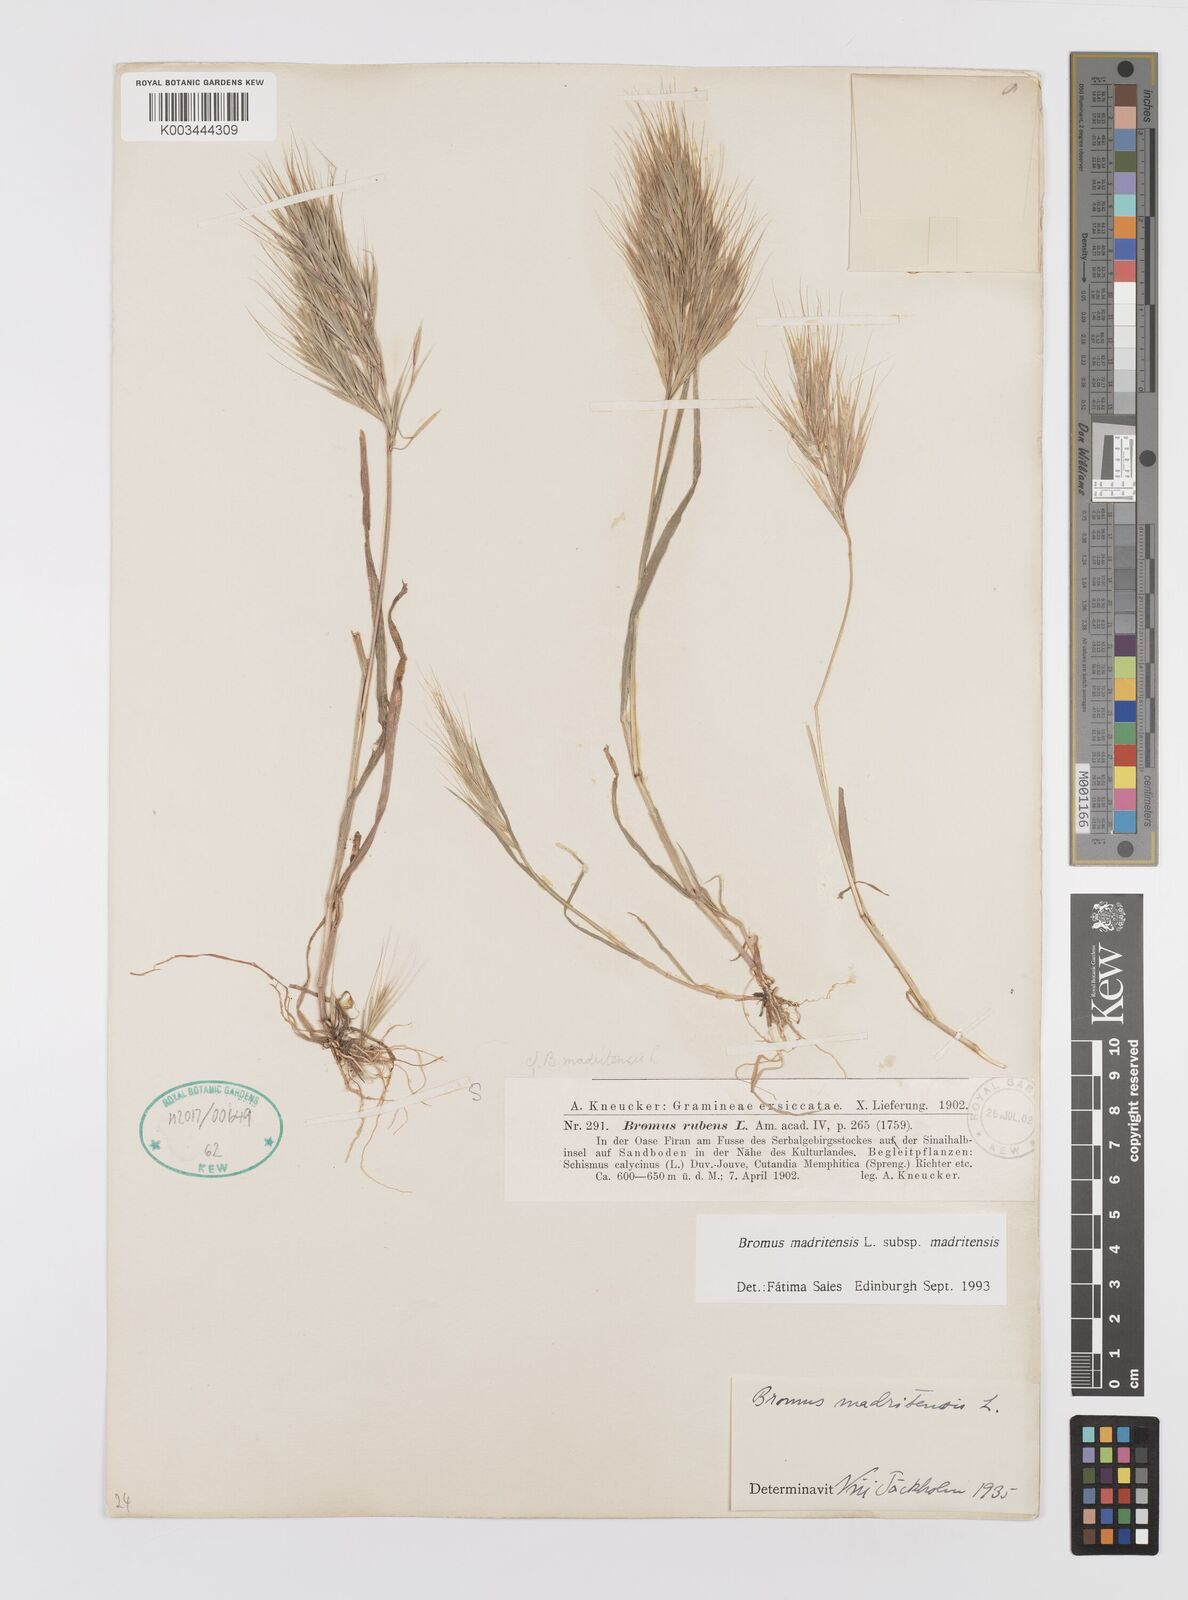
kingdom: Plantae
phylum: Tracheophyta
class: Liliopsida
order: Poales
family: Poaceae
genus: Bromus
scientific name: Bromus madritensis
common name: Compact brome
